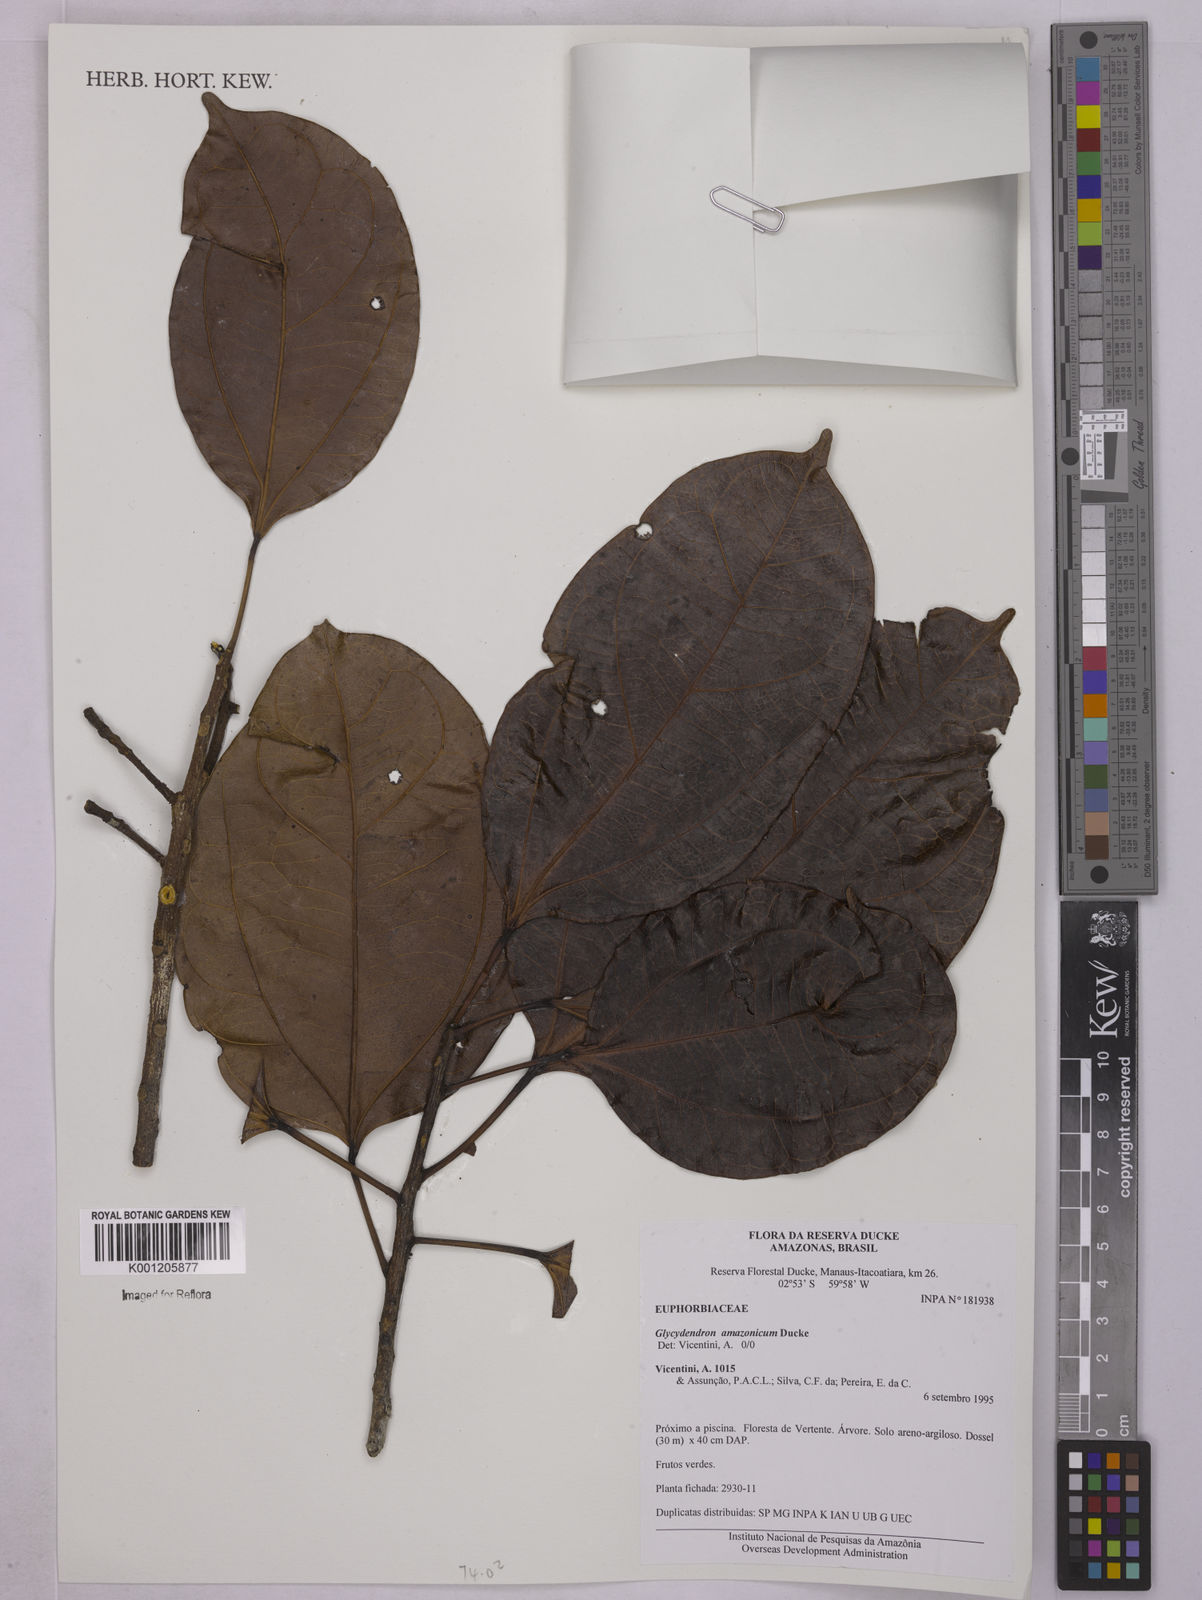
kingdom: Plantae
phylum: Tracheophyta
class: Magnoliopsida
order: Malpighiales
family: Euphorbiaceae
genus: Glycydendron
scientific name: Glycydendron amazonicum
